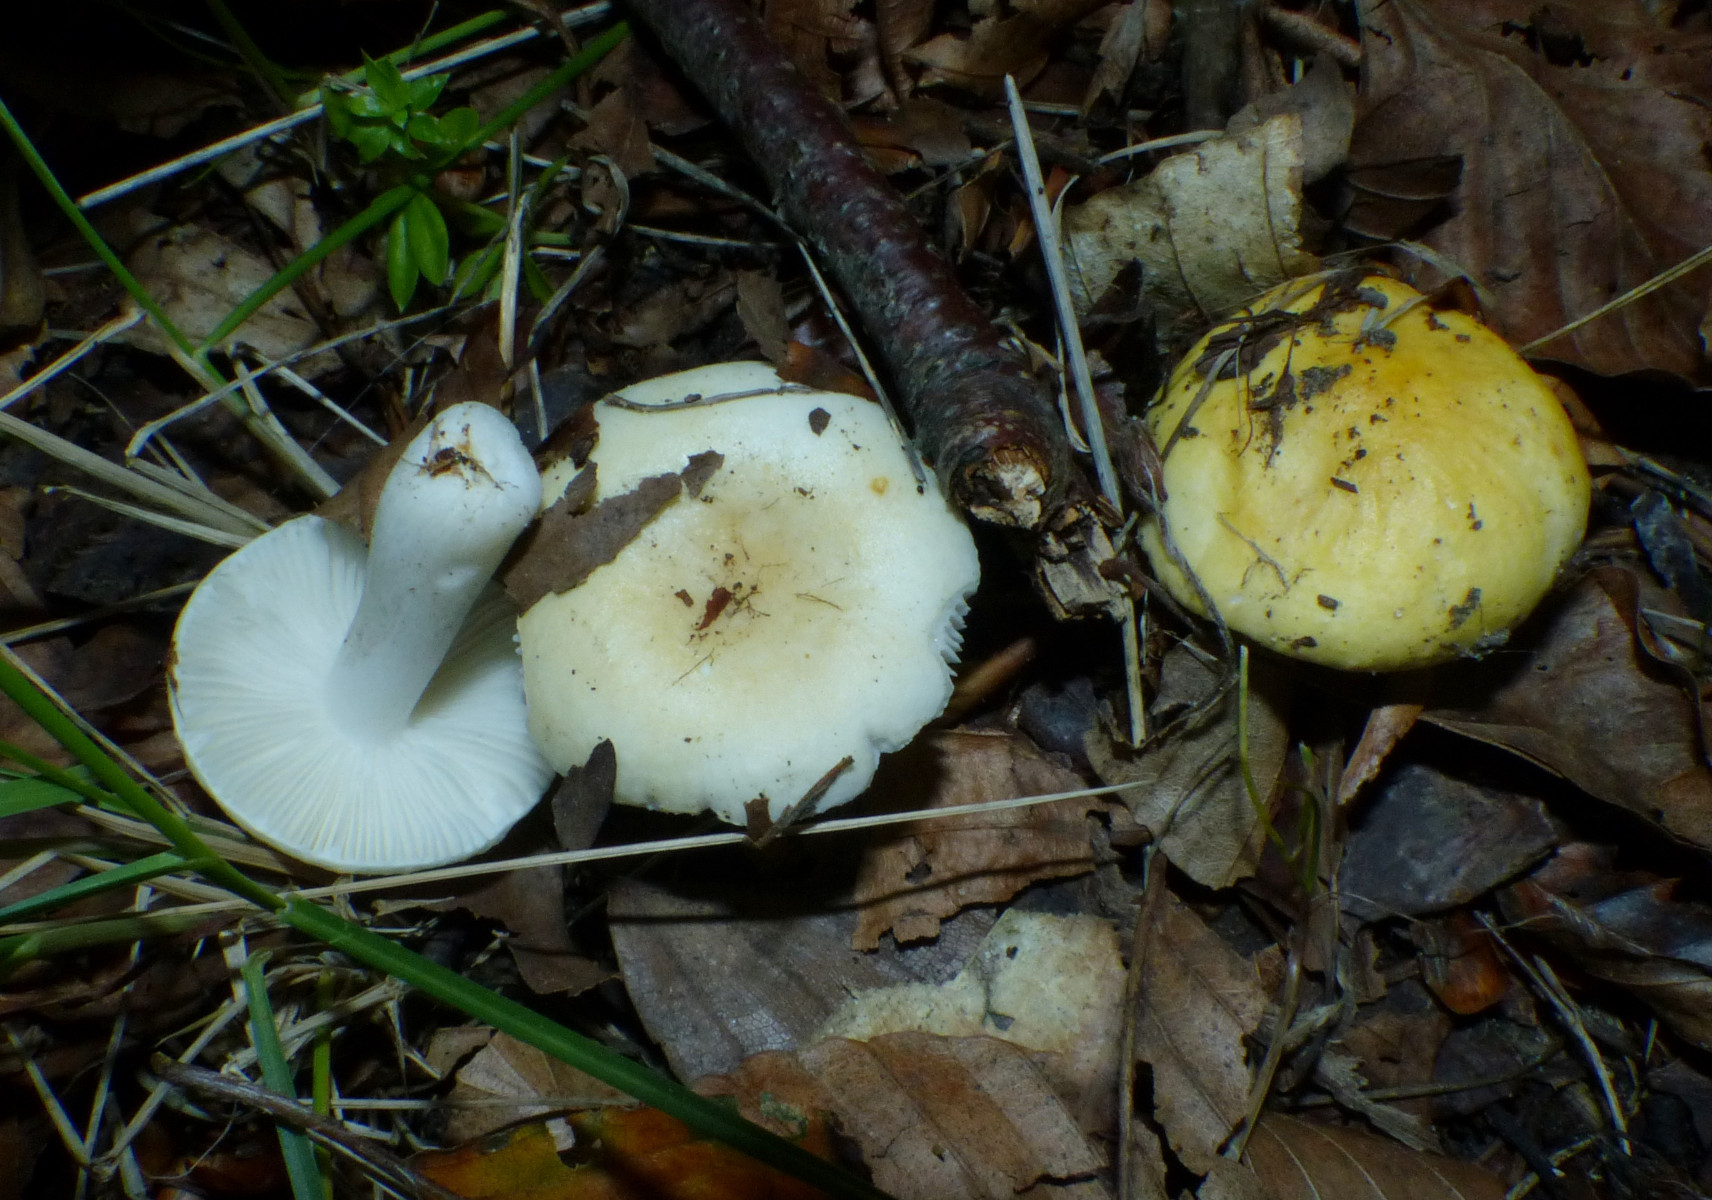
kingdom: Fungi
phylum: Basidiomycota
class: Agaricomycetes
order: Russulales
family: Russulaceae
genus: Russula
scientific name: Russula solaris
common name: sol-skørhat
